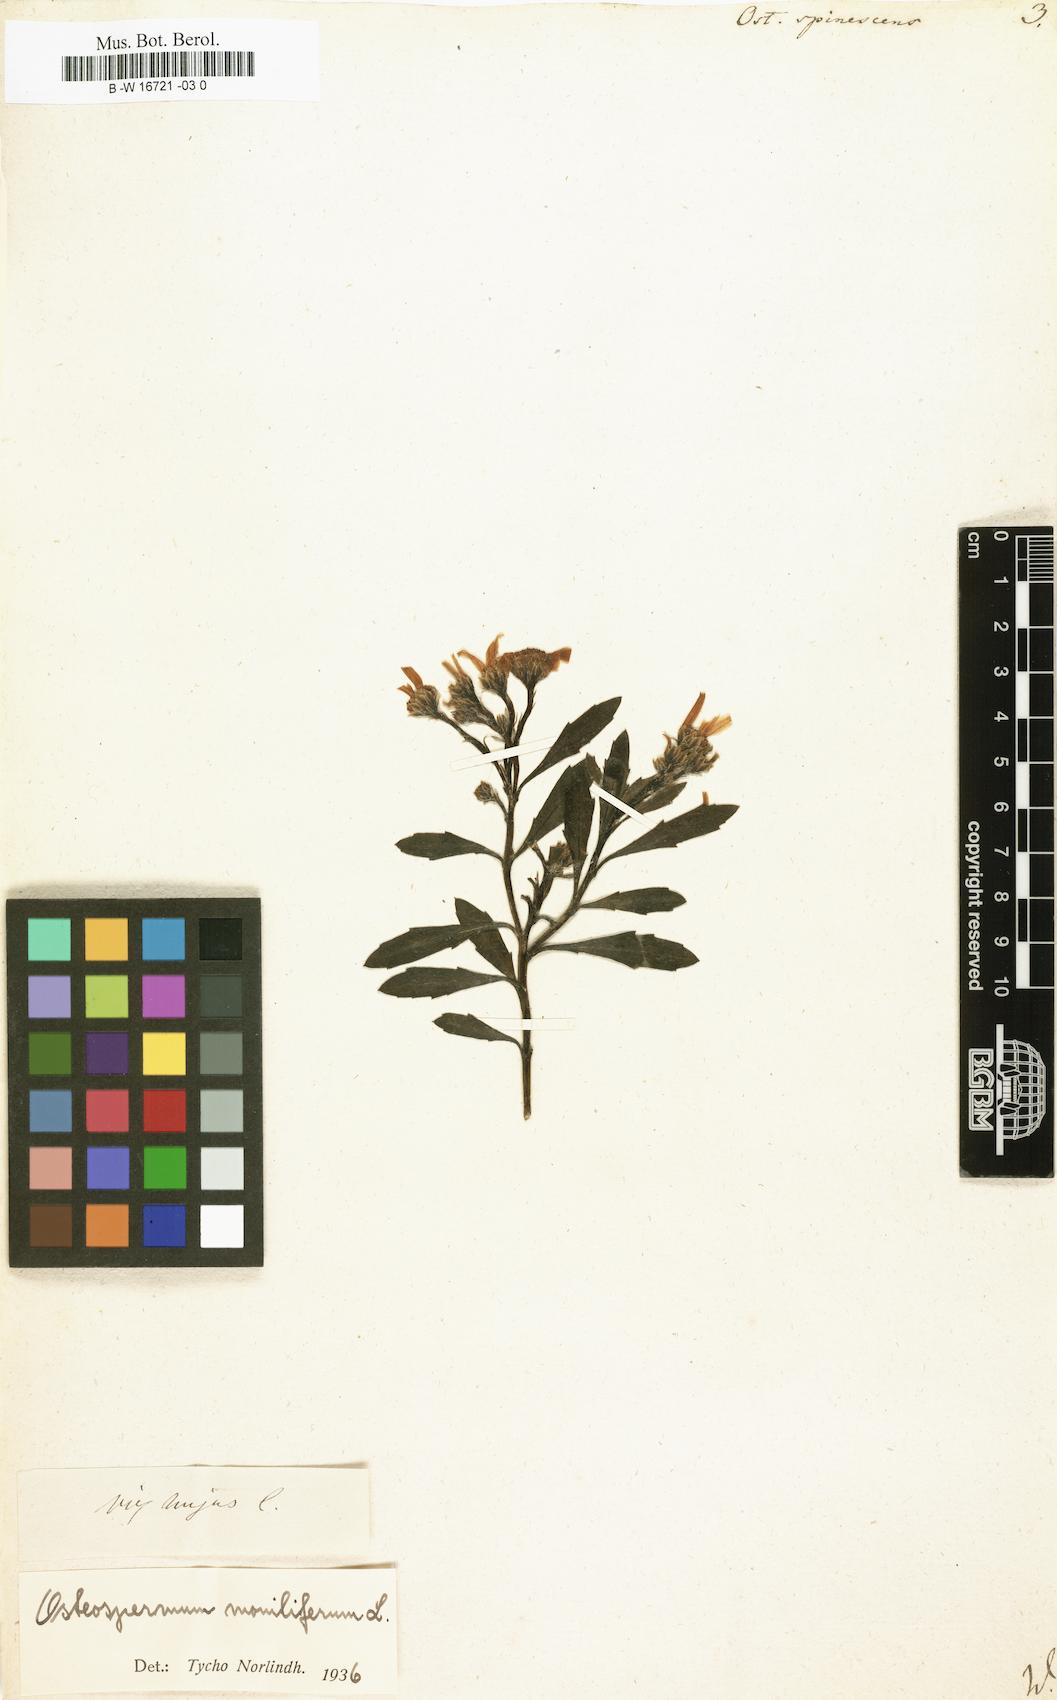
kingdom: Plantae
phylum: Tracheophyta
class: Magnoliopsida
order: Asterales
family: Asteraceae
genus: Osteospermum
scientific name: Osteospermum spinescens
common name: Sunflower
